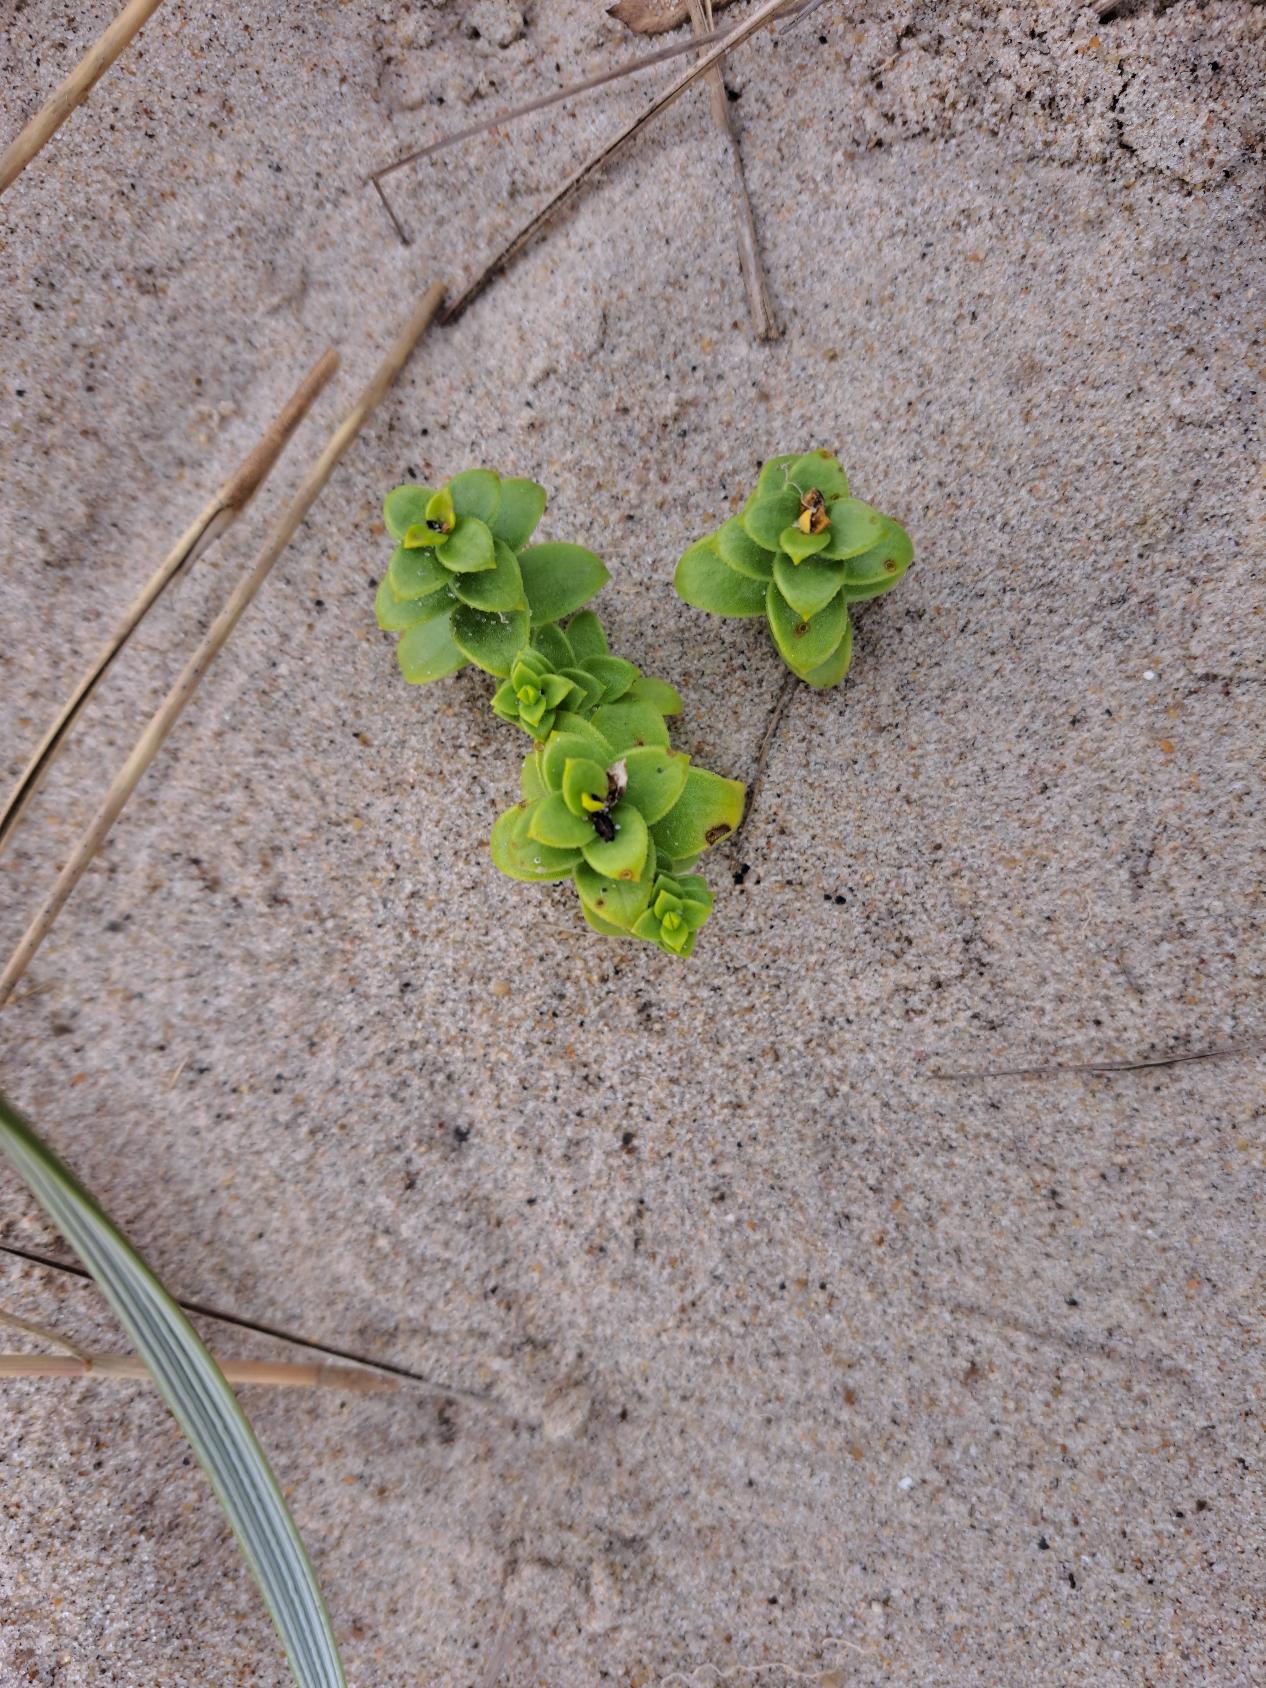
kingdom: Plantae
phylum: Tracheophyta
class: Magnoliopsida
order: Caryophyllales
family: Caryophyllaceae
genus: Honckenya
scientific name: Honckenya peploides
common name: Strandarve
